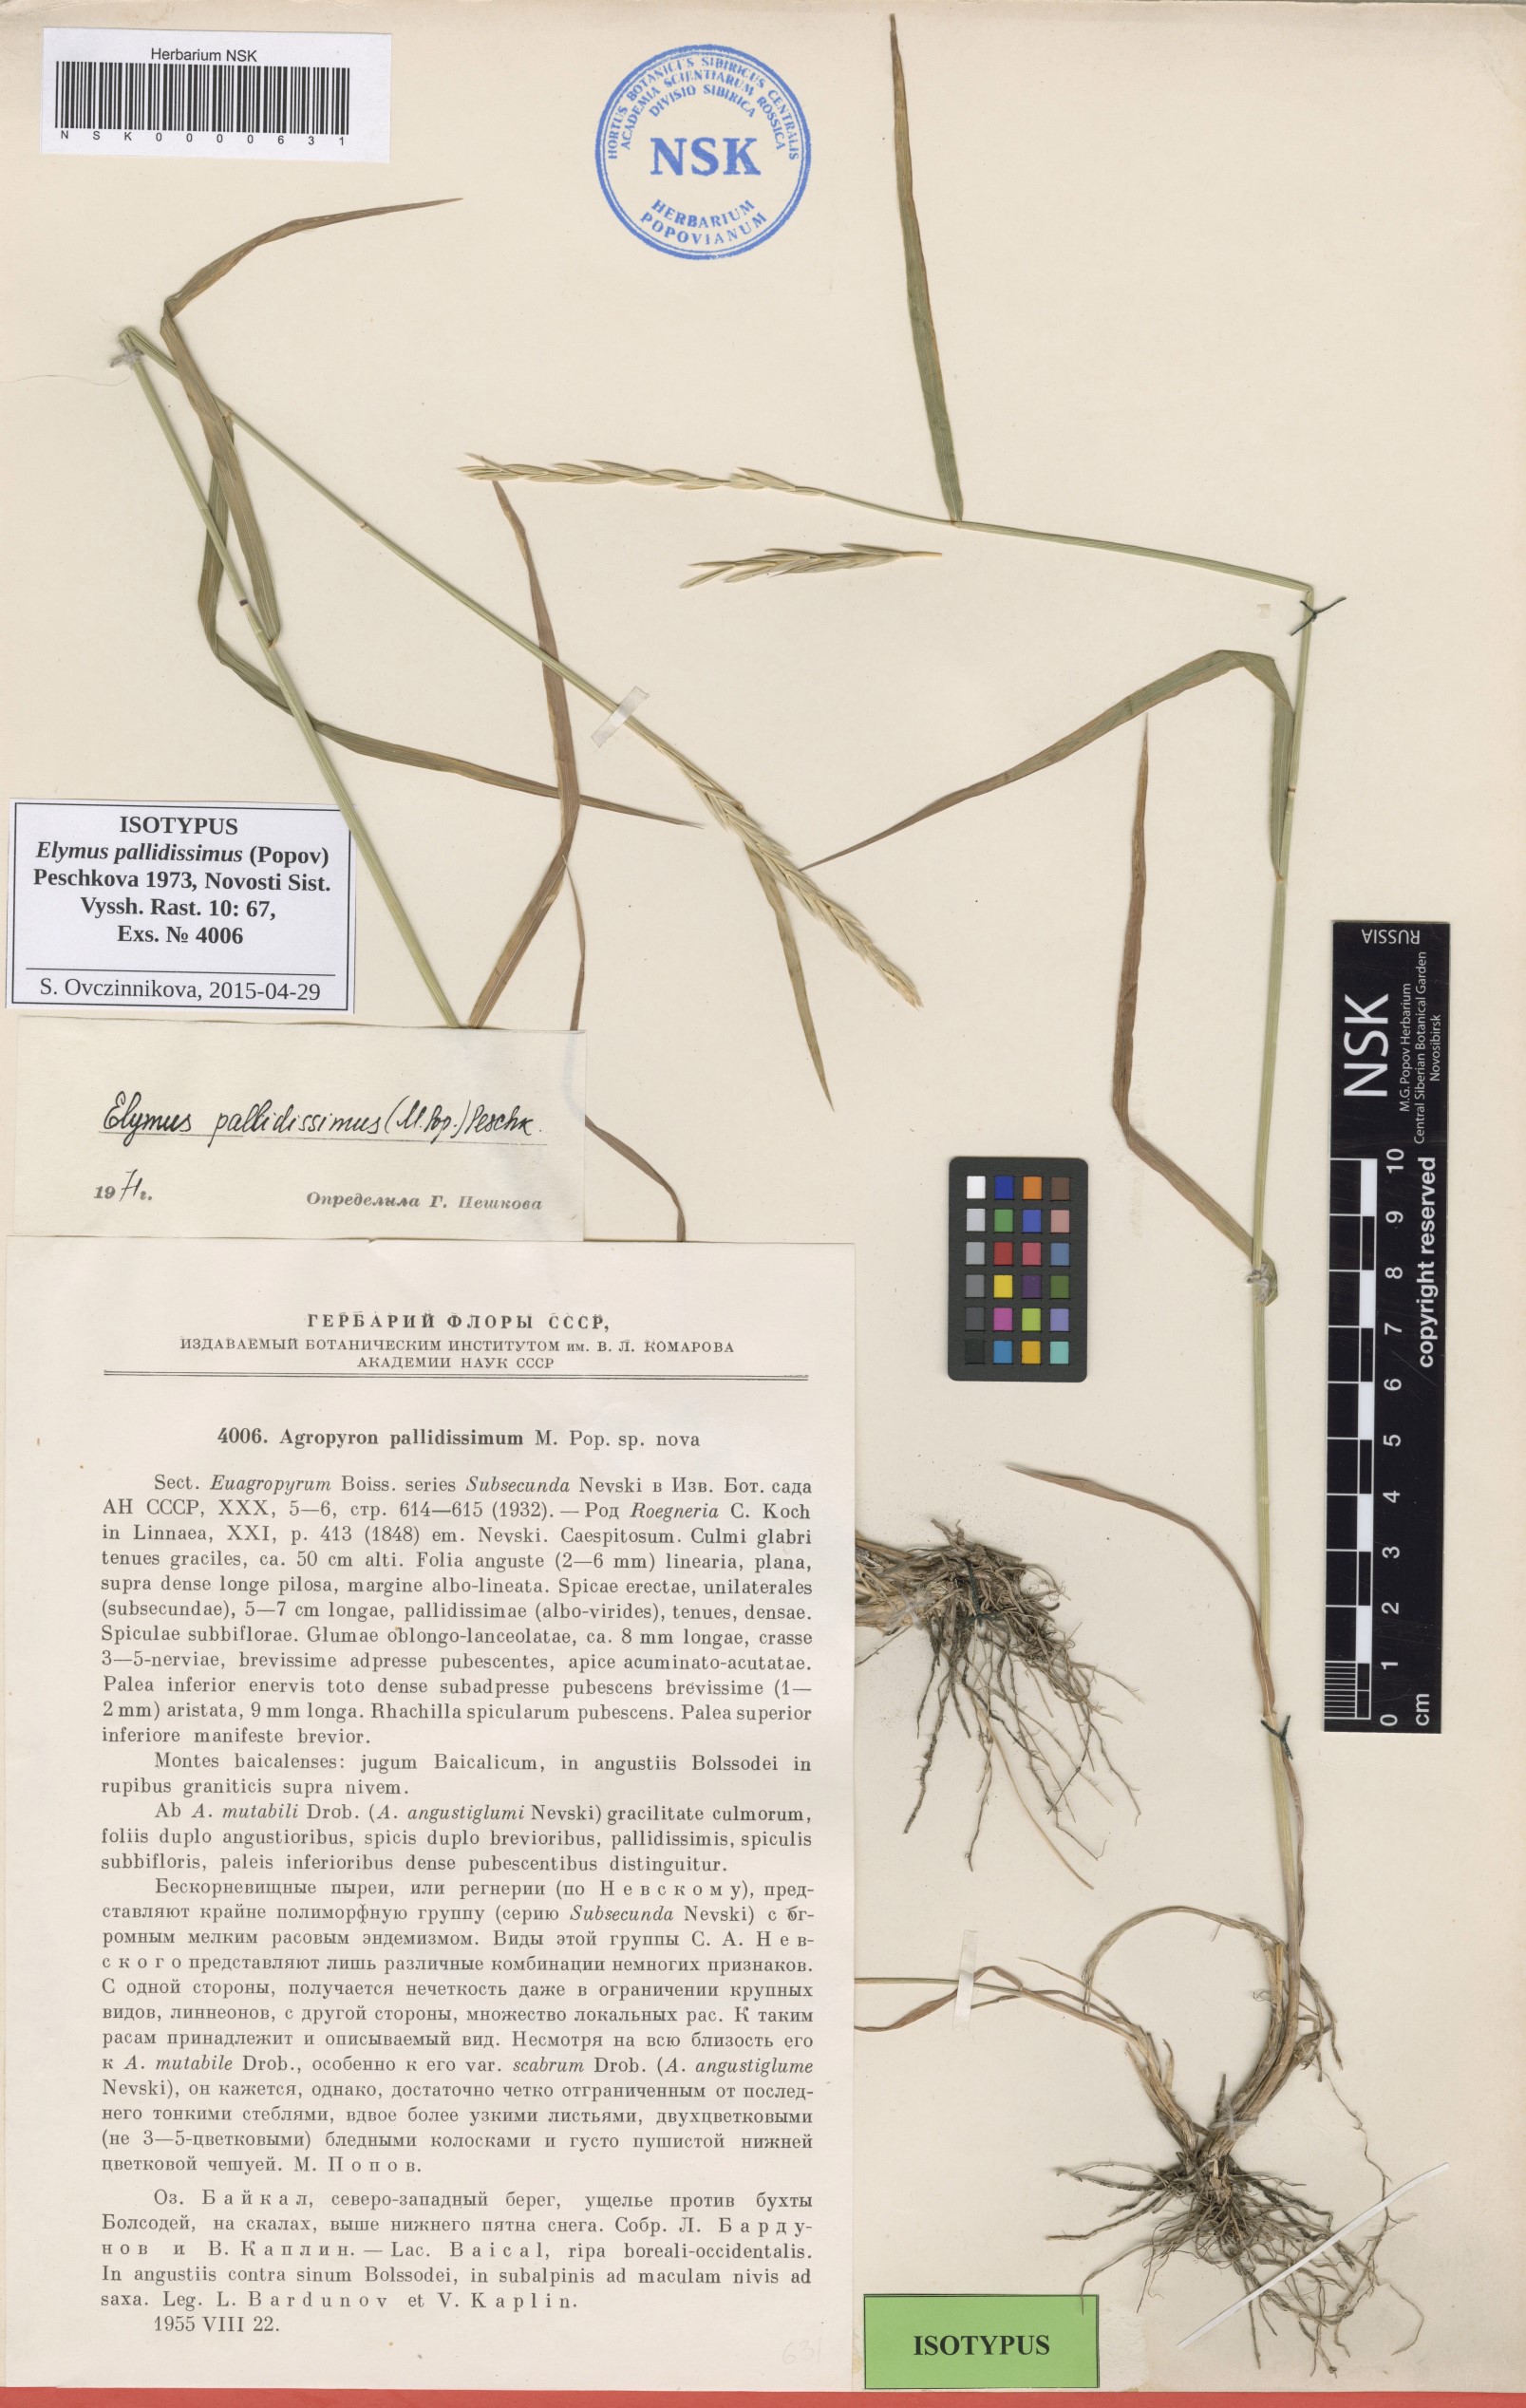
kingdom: Plantae
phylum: Tracheophyta
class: Liliopsida
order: Poales
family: Poaceae
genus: Elymus
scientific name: Elymus mutabilis
